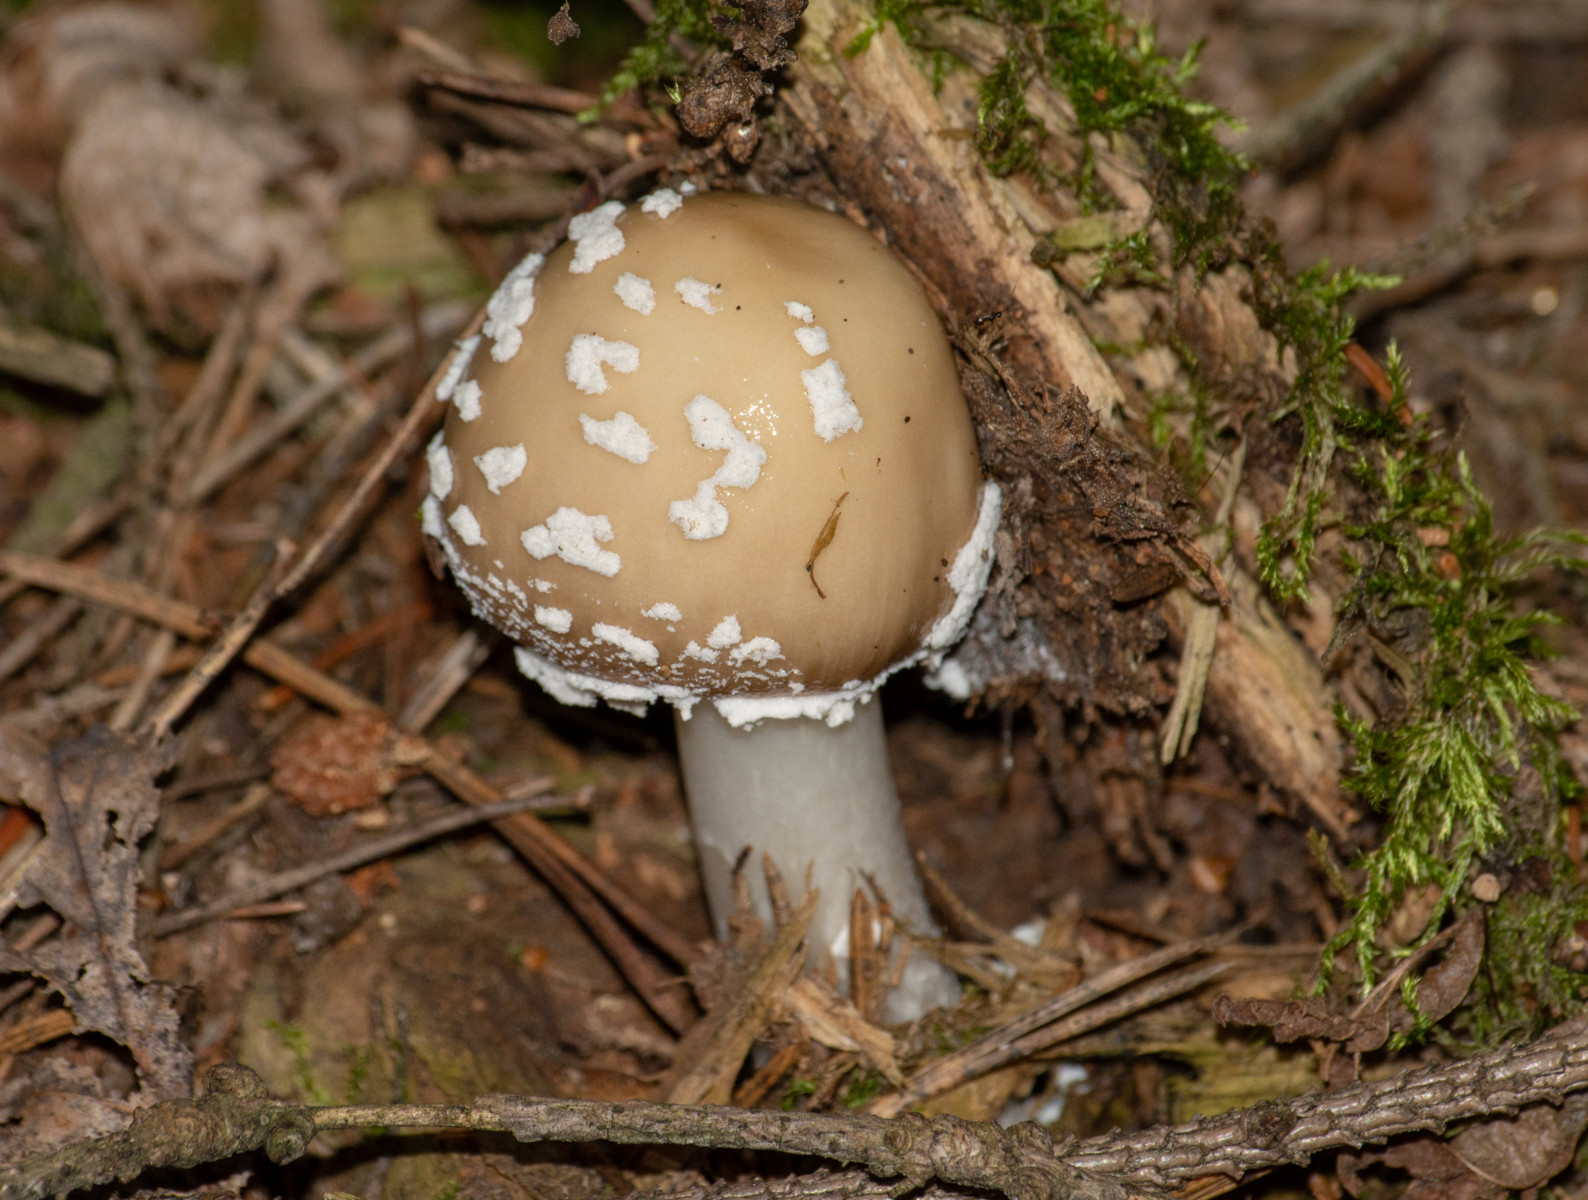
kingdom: Fungi
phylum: Basidiomycota
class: Agaricomycetes
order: Agaricales
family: Amanitaceae
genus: Amanita
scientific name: Amanita
